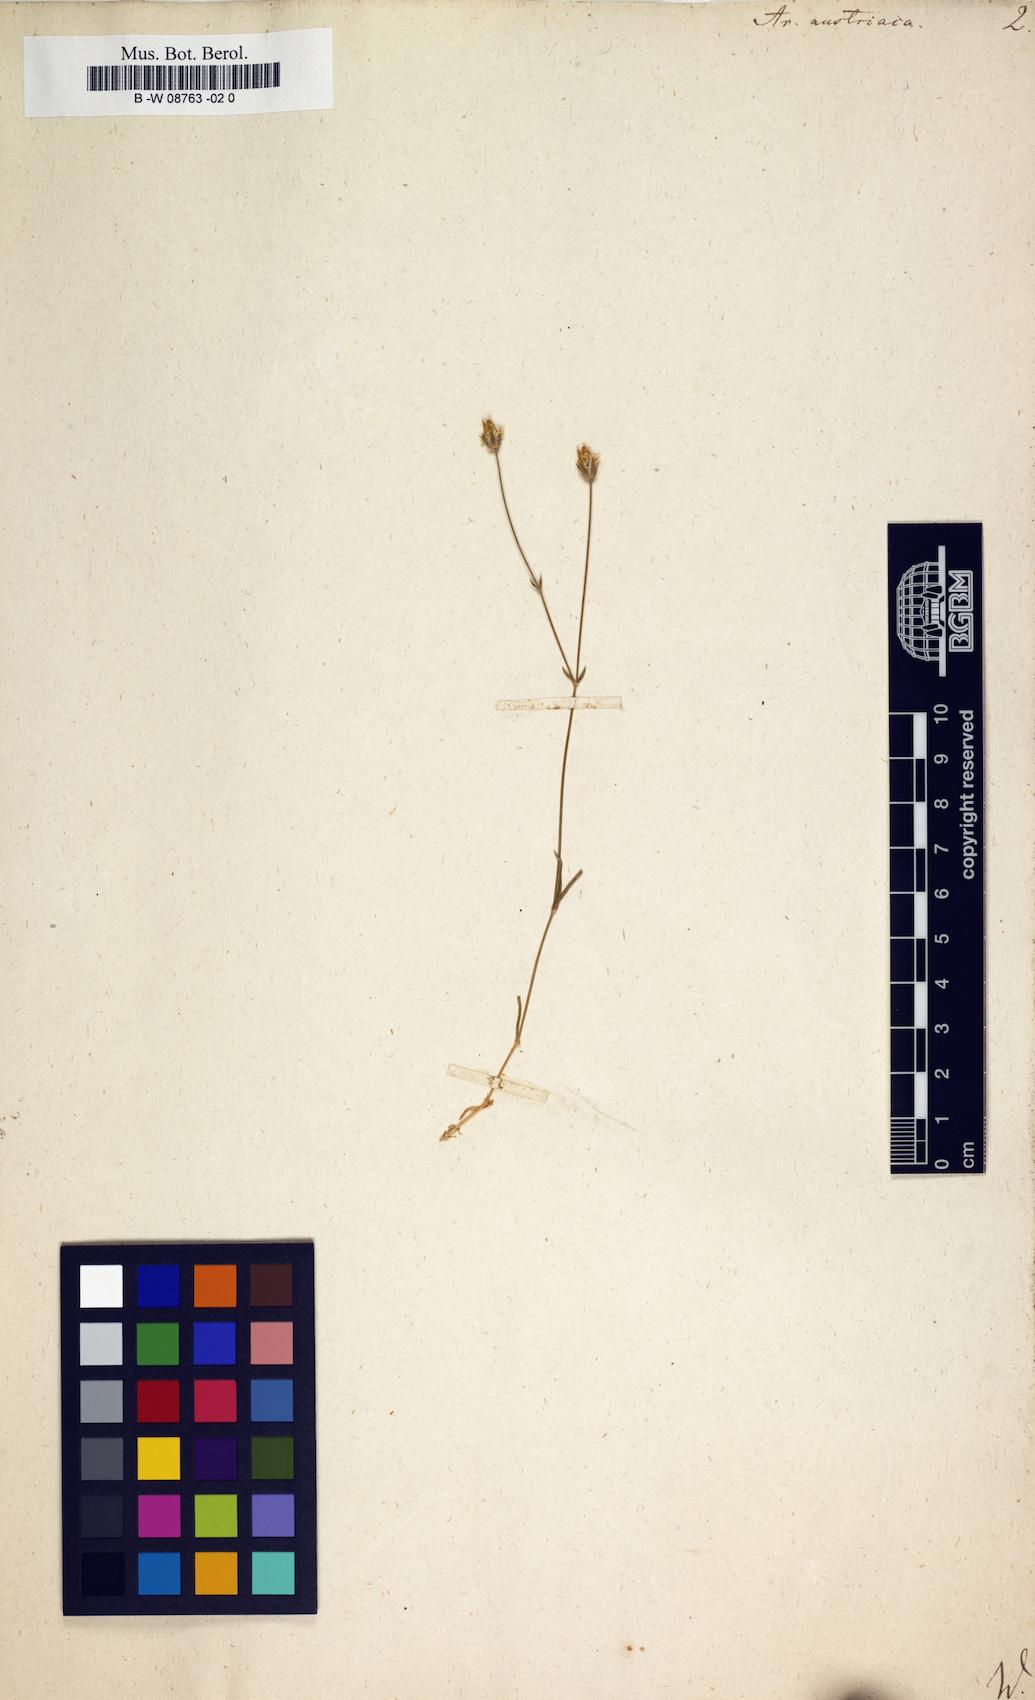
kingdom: Plantae
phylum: Tracheophyta
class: Magnoliopsida
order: Caryophyllales
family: Caryophyllaceae
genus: Sabulina
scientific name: Sabulina austriaca
